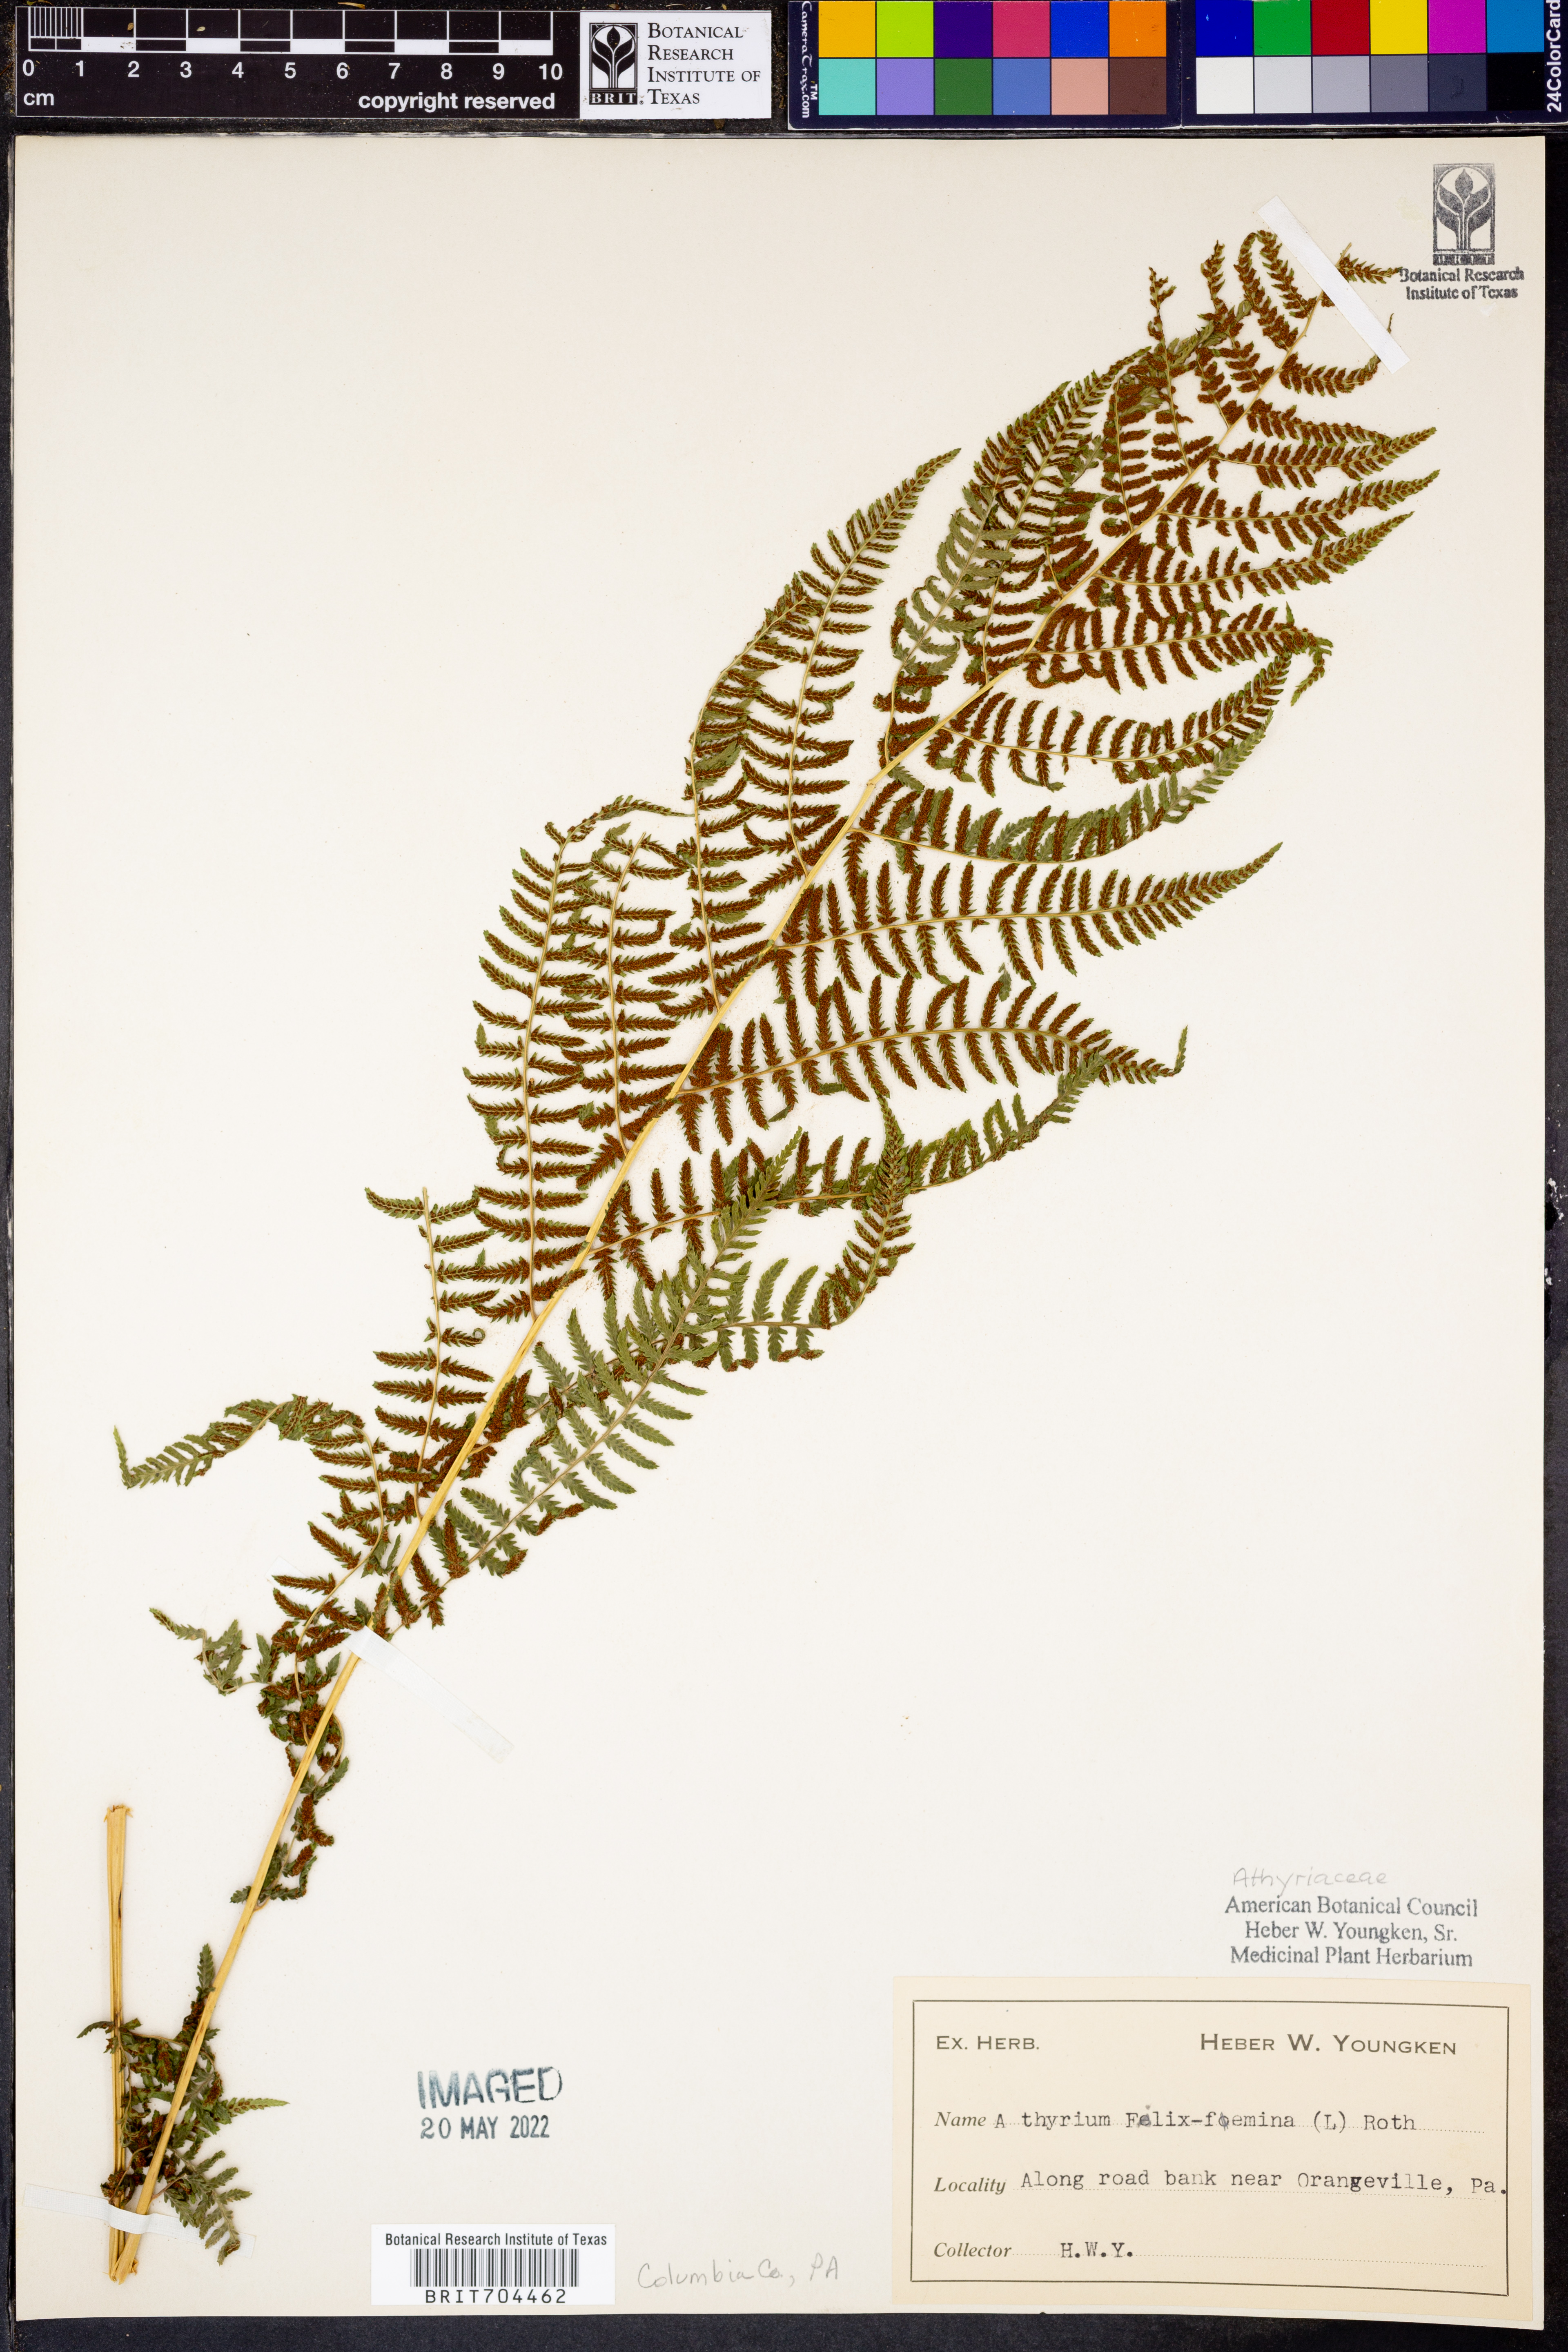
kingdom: Plantae
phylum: Tracheophyta
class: Polypodiopsida
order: Polypodiales
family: Athyriaceae
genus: Athyrium
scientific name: Athyrium filix-femina
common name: Lady fern
